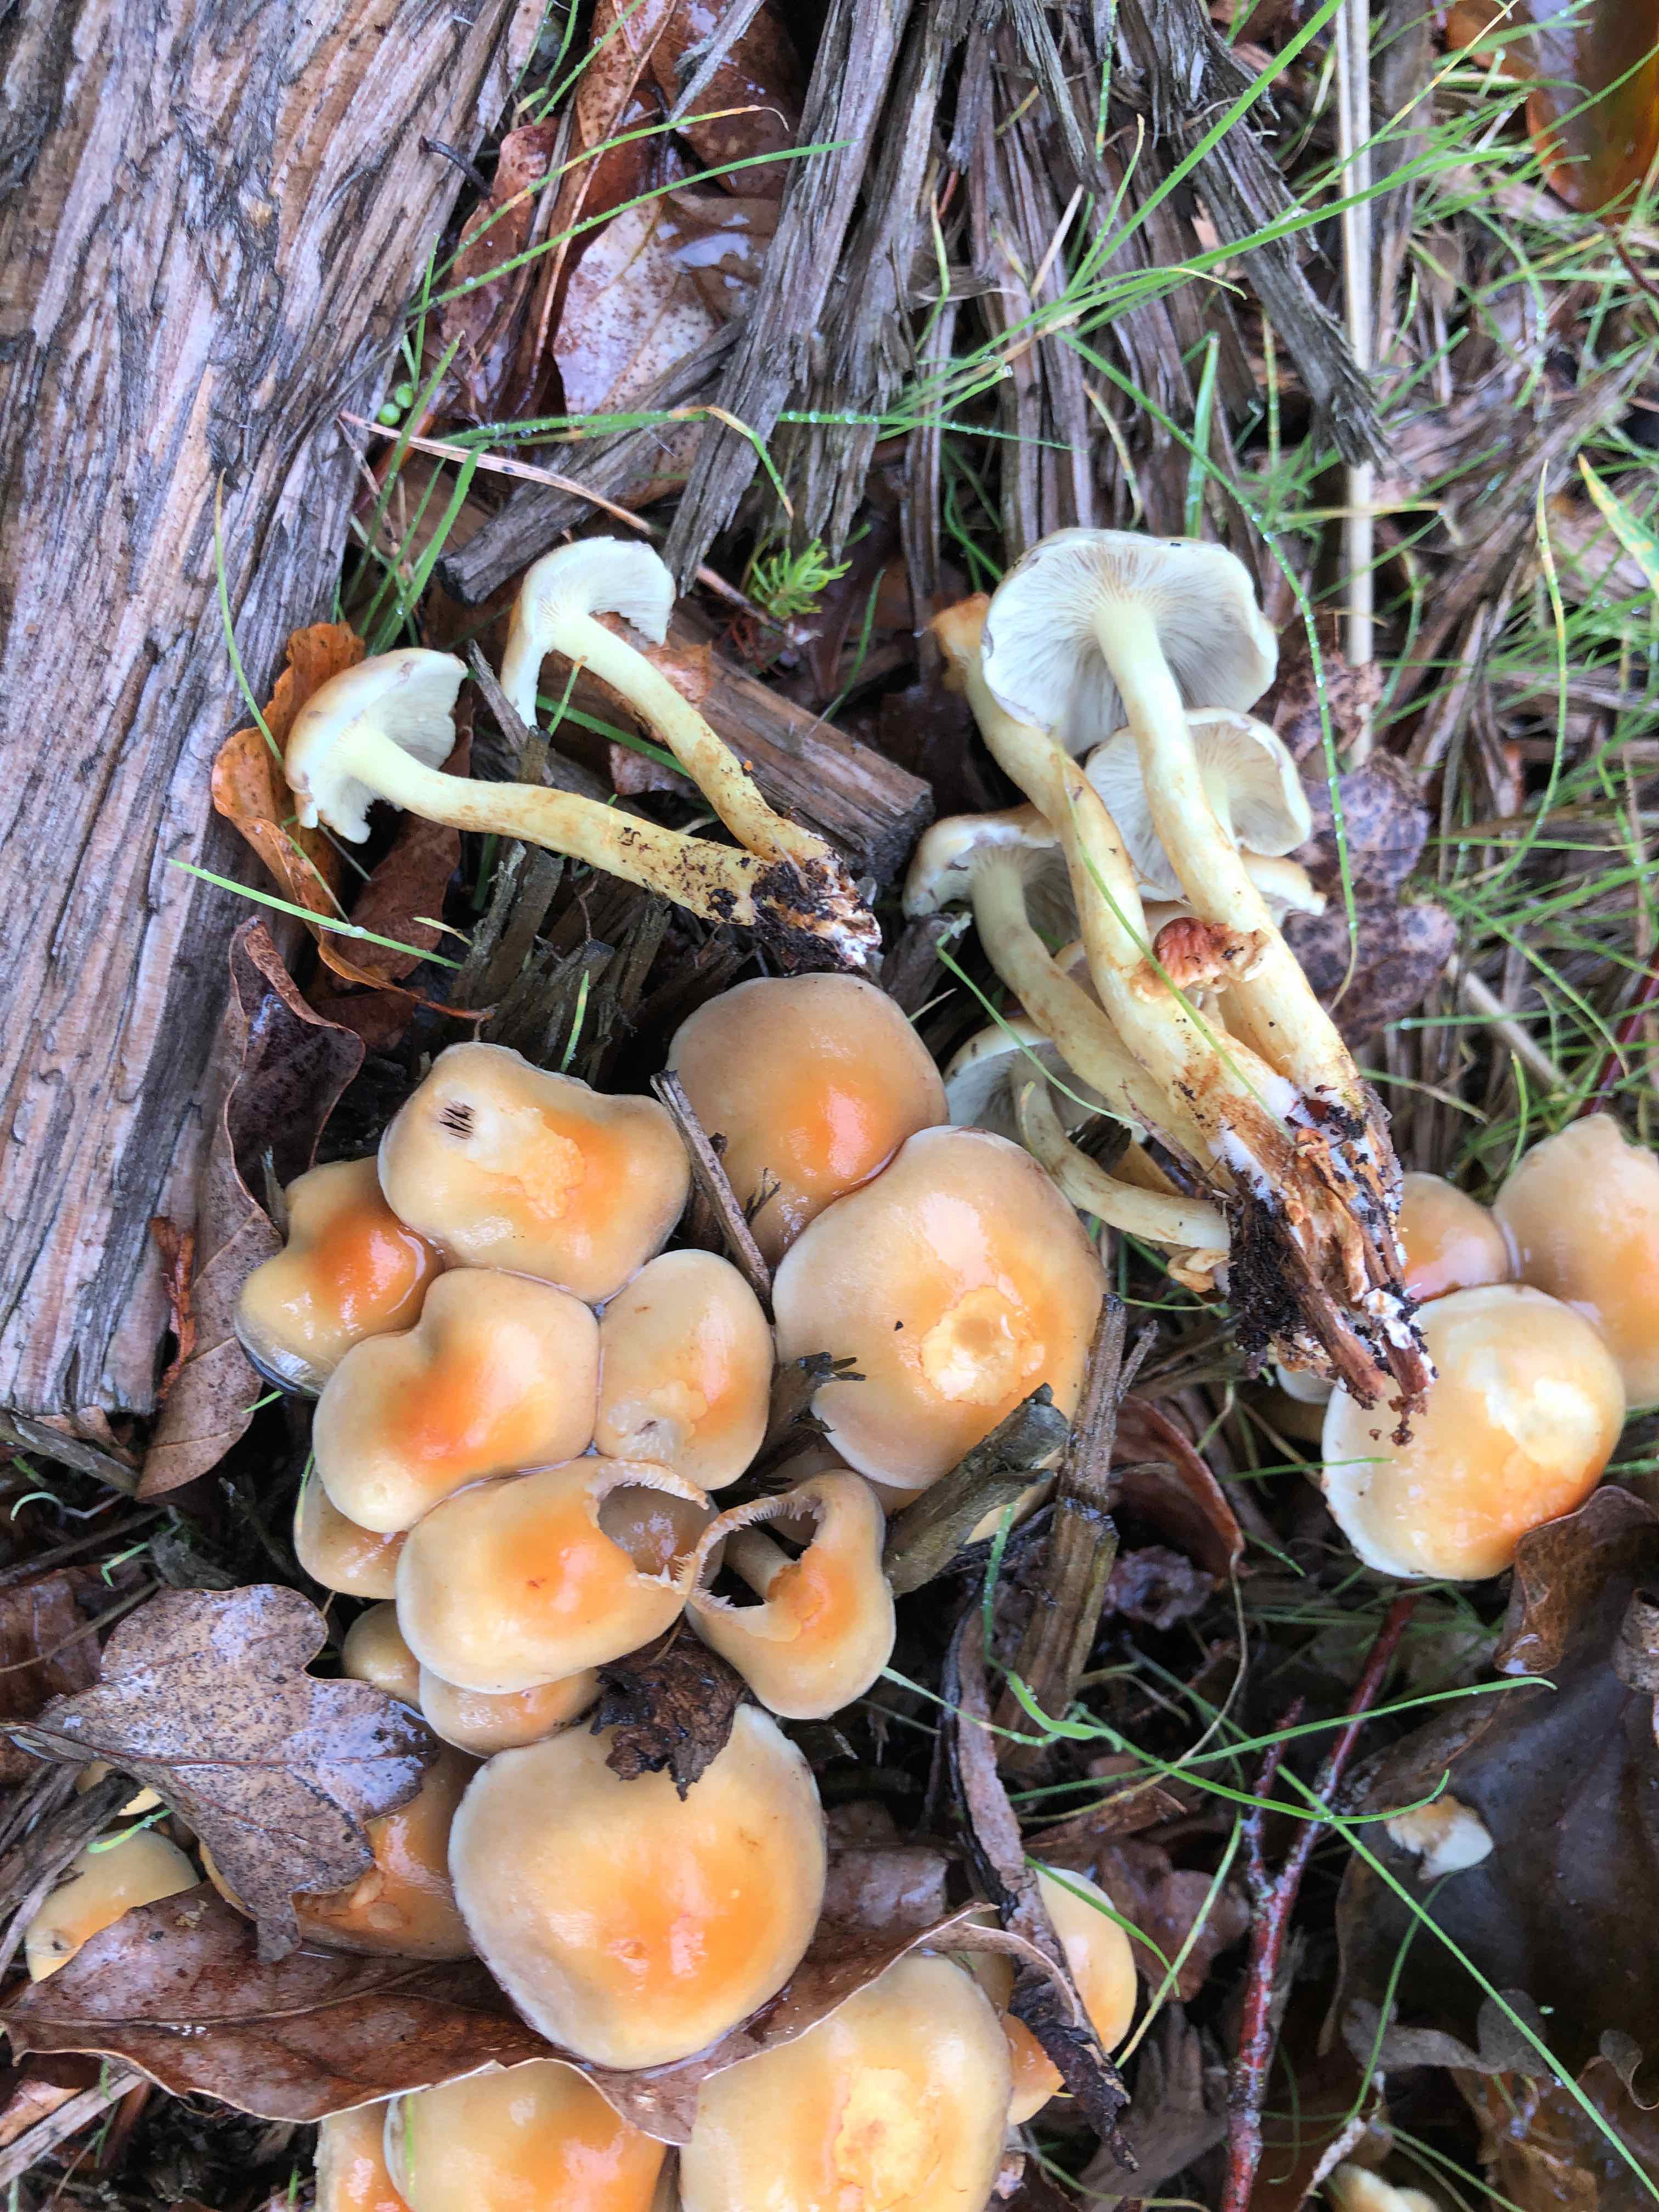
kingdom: Fungi
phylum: Basidiomycota
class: Agaricomycetes
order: Agaricales
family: Strophariaceae
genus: Hypholoma
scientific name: Hypholoma fasciculare
